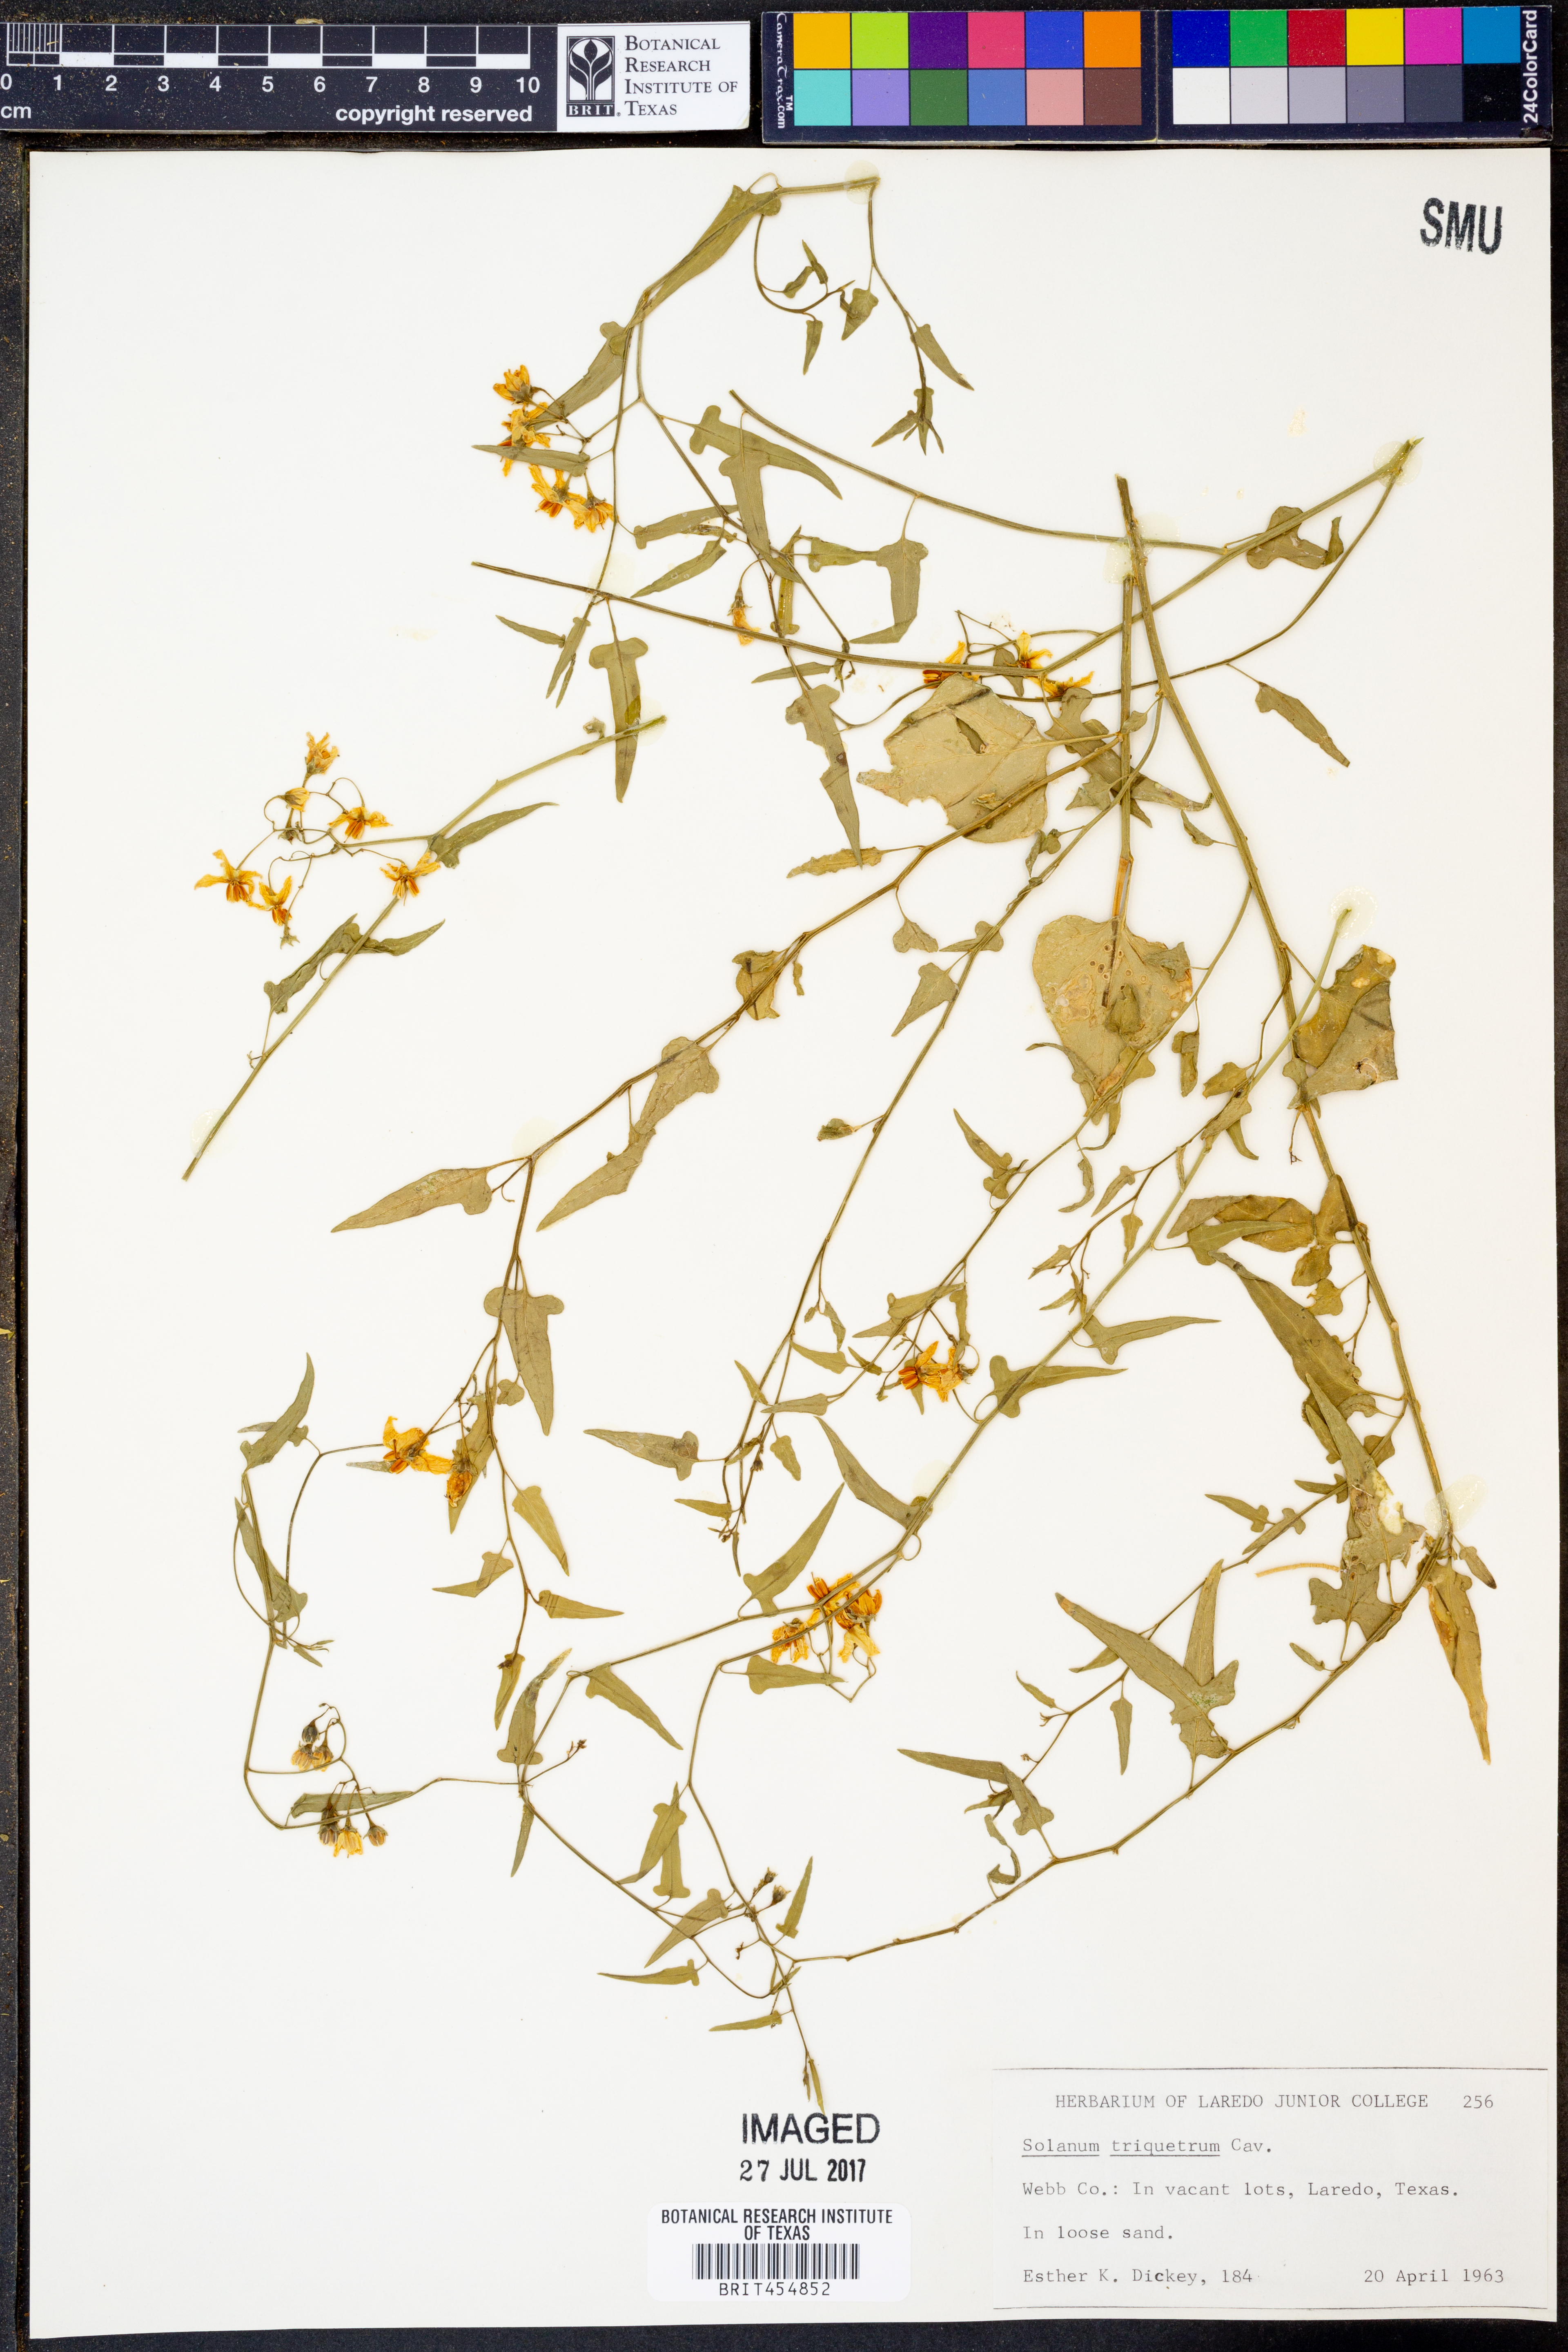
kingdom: Plantae
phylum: Tracheophyta
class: Magnoliopsida
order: Solanales
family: Solanaceae
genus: Solanum
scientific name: Solanum triquetrum
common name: Texas nightshade
